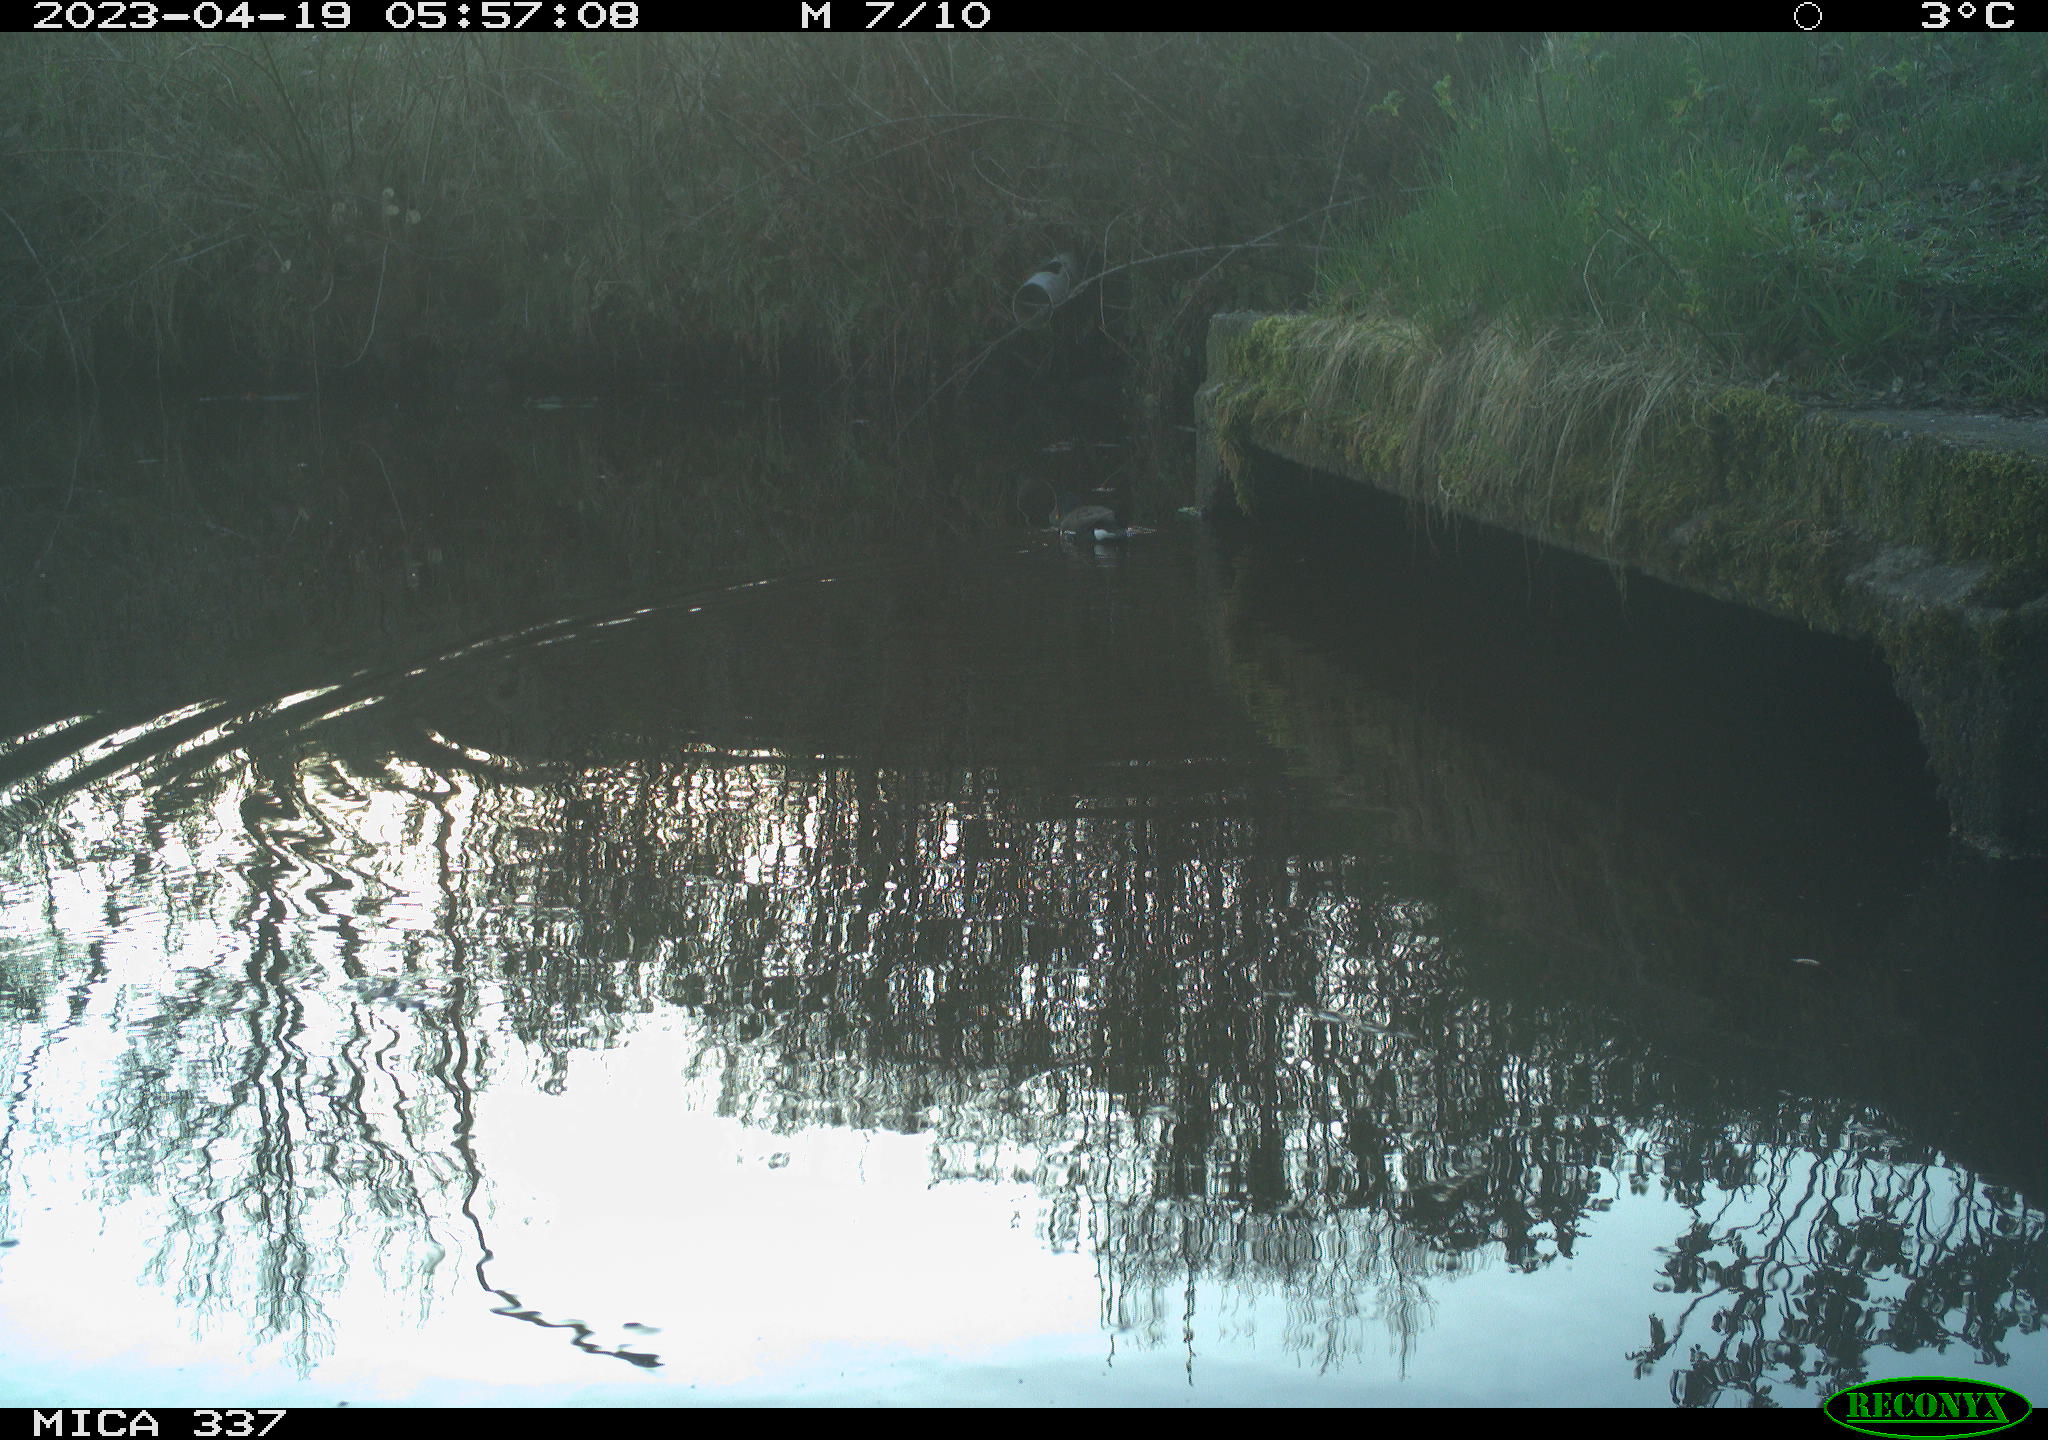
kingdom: Animalia
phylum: Chordata
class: Aves
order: Gruiformes
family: Rallidae
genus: Gallinula
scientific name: Gallinula chloropus
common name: Common moorhen
